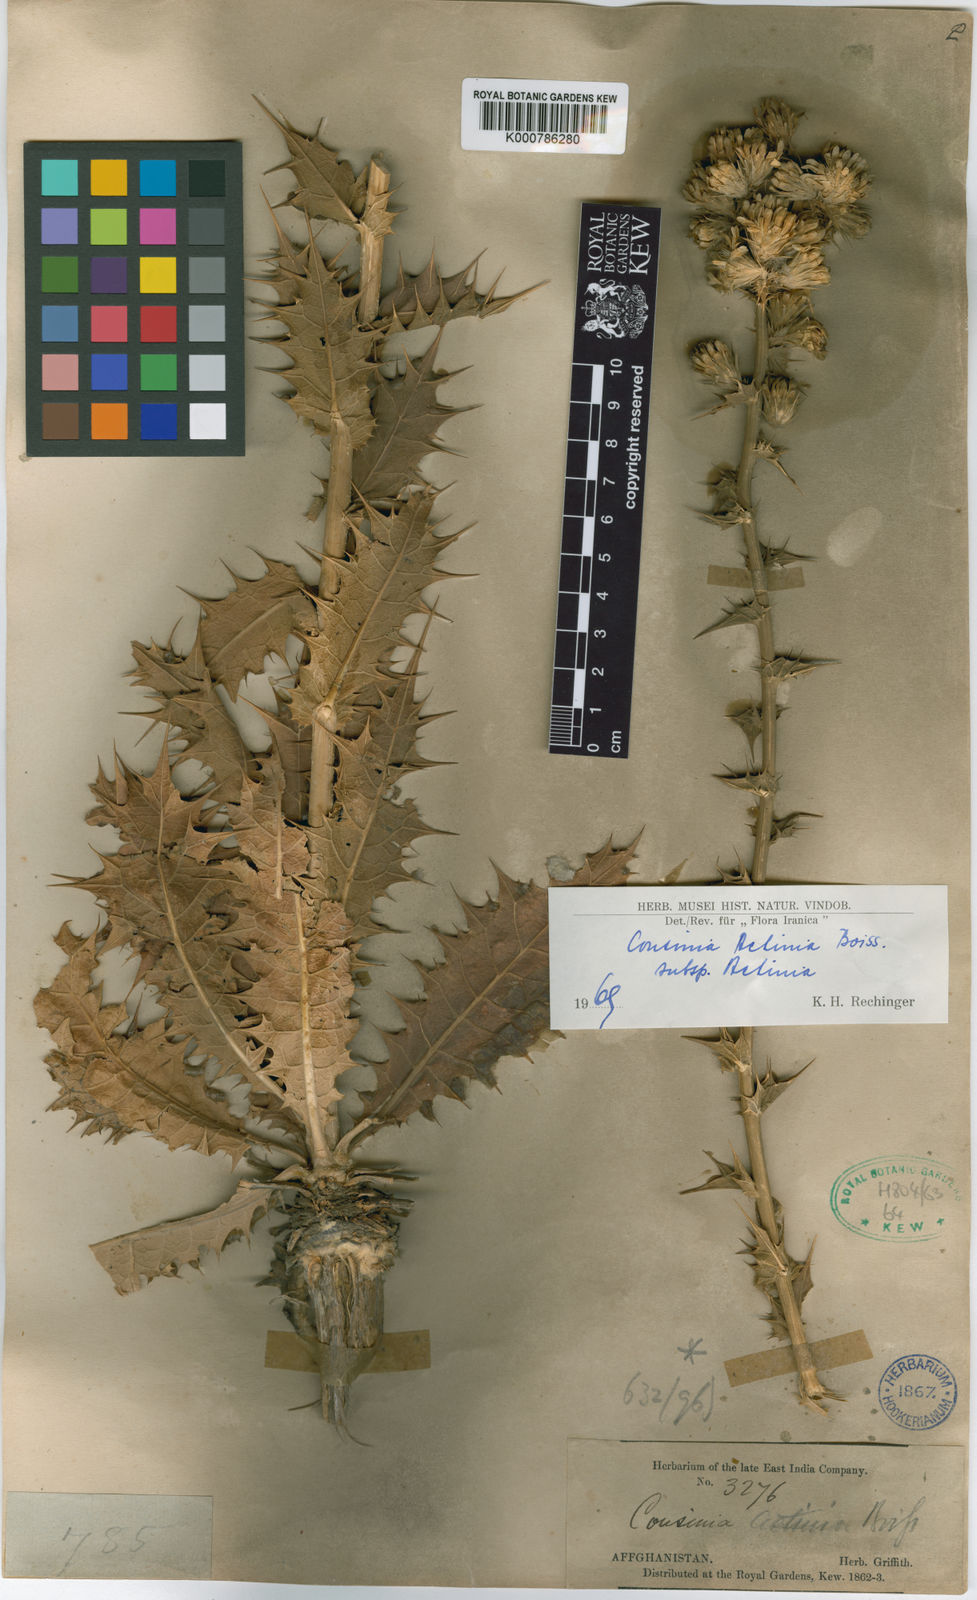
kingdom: Plantae
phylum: Tracheophyta
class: Magnoliopsida
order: Asterales
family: Asteraceae
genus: Cousinia
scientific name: Cousinia actinia
